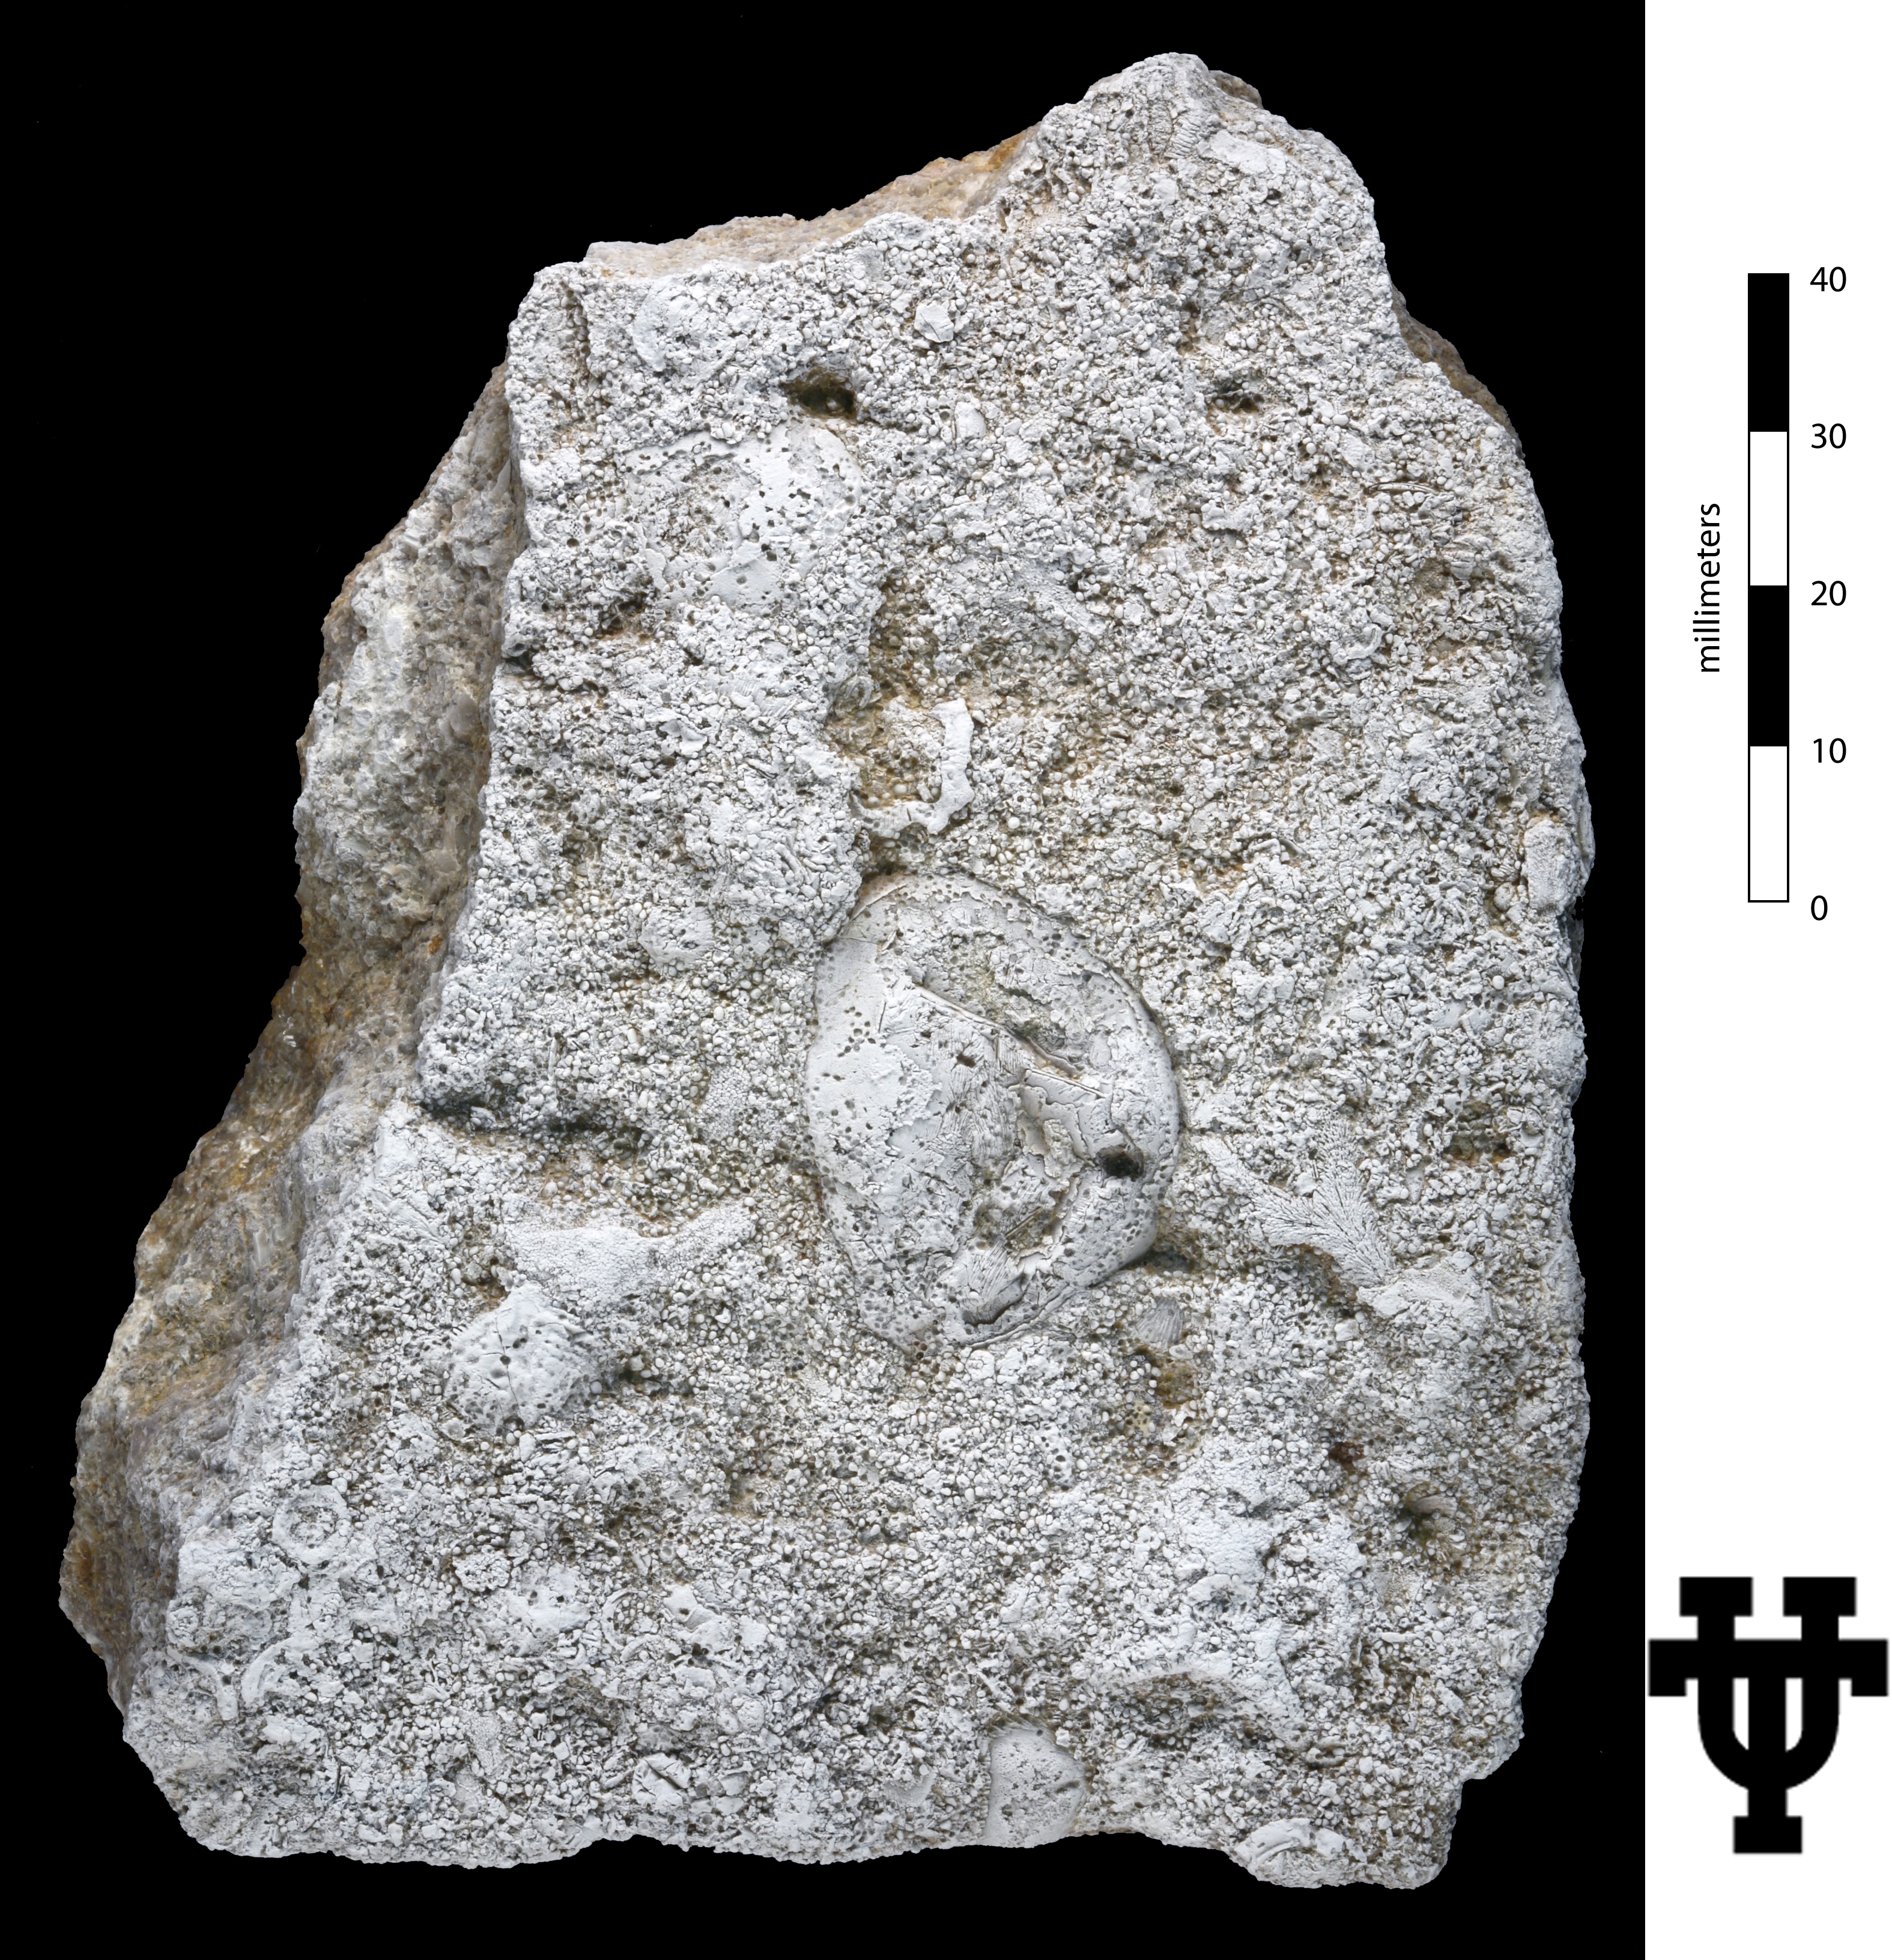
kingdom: Animalia
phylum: Echinodermata
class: Crinoidea
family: Platycystitidae
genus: Globulocystites
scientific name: Globulocystites Platycystites cristatus
